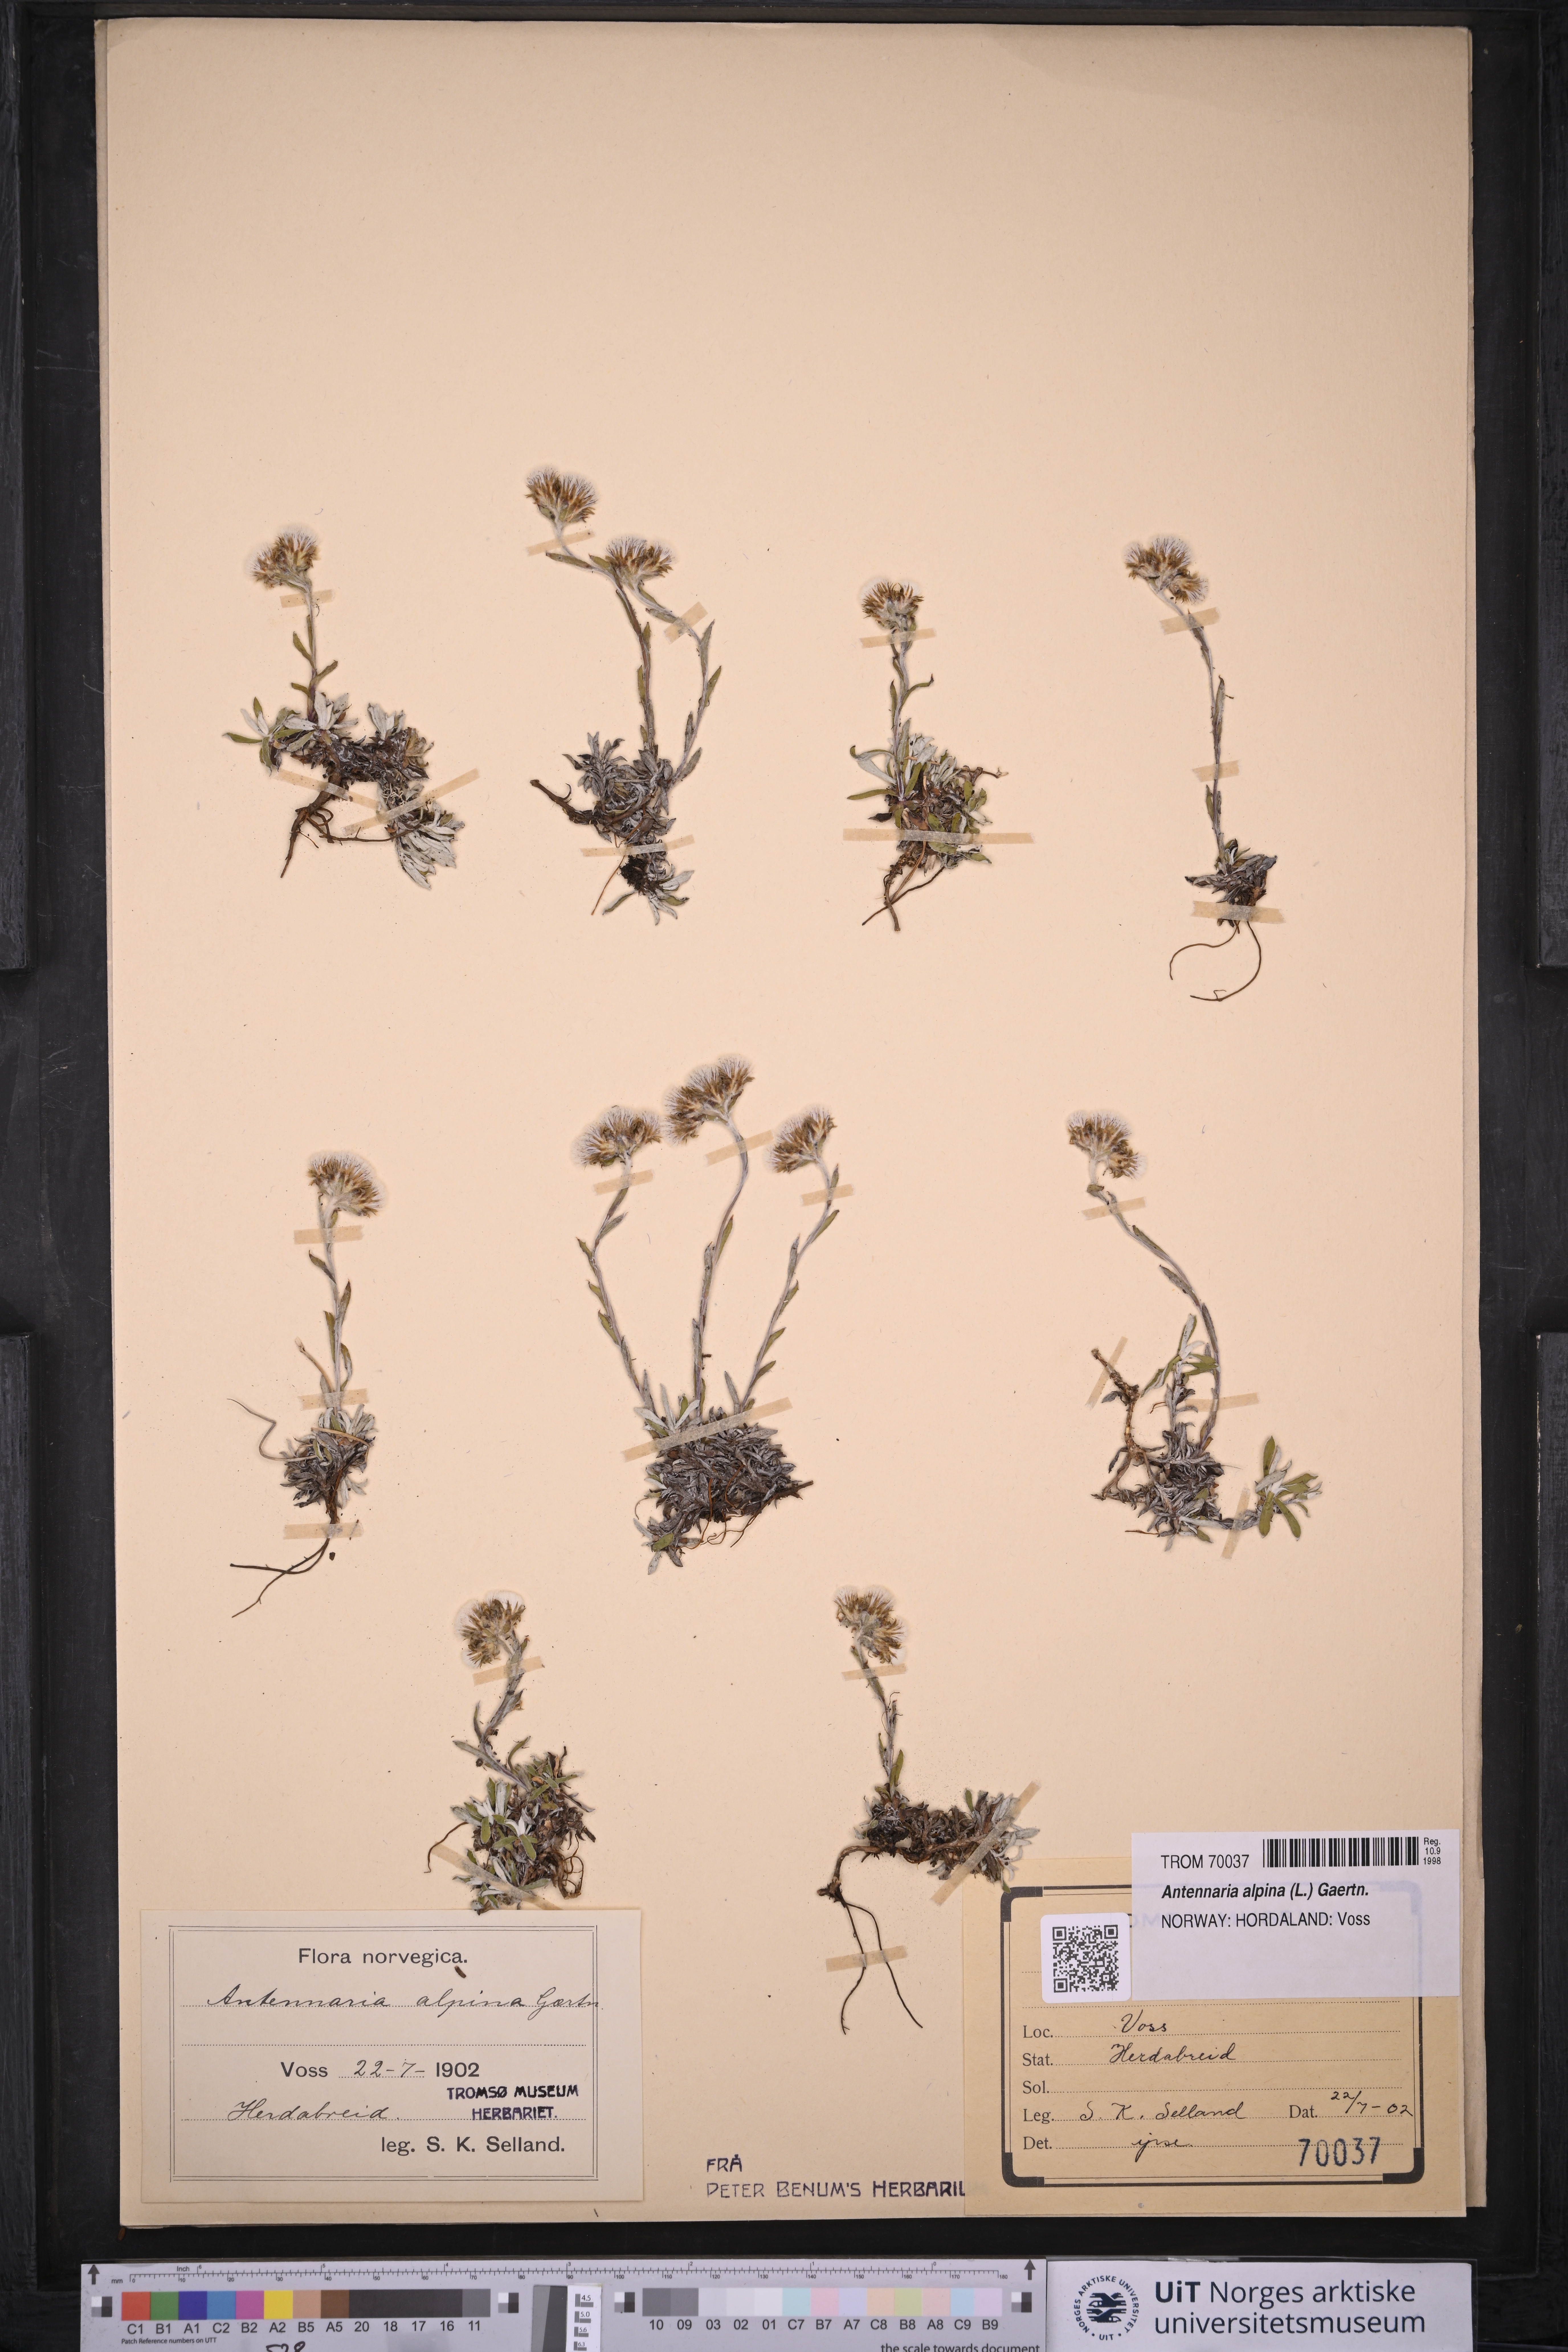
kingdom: Plantae
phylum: Tracheophyta
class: Magnoliopsida
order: Asterales
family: Asteraceae
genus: Antennaria
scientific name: Antennaria alpina
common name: Alpine pussytoes
